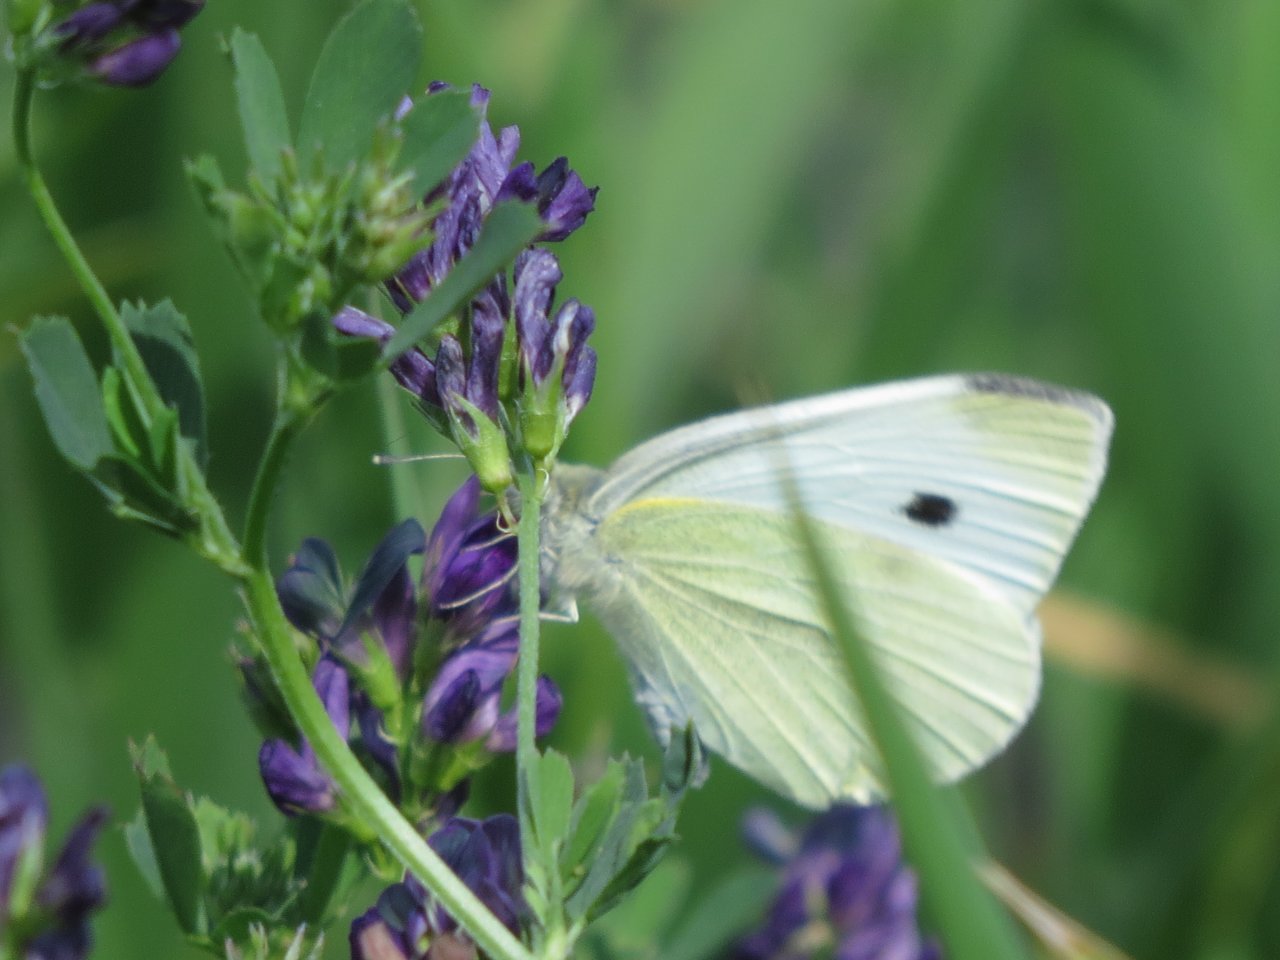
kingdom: Animalia
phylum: Arthropoda
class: Insecta
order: Lepidoptera
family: Pieridae
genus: Pieris
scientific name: Pieris rapae
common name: Cabbage White
